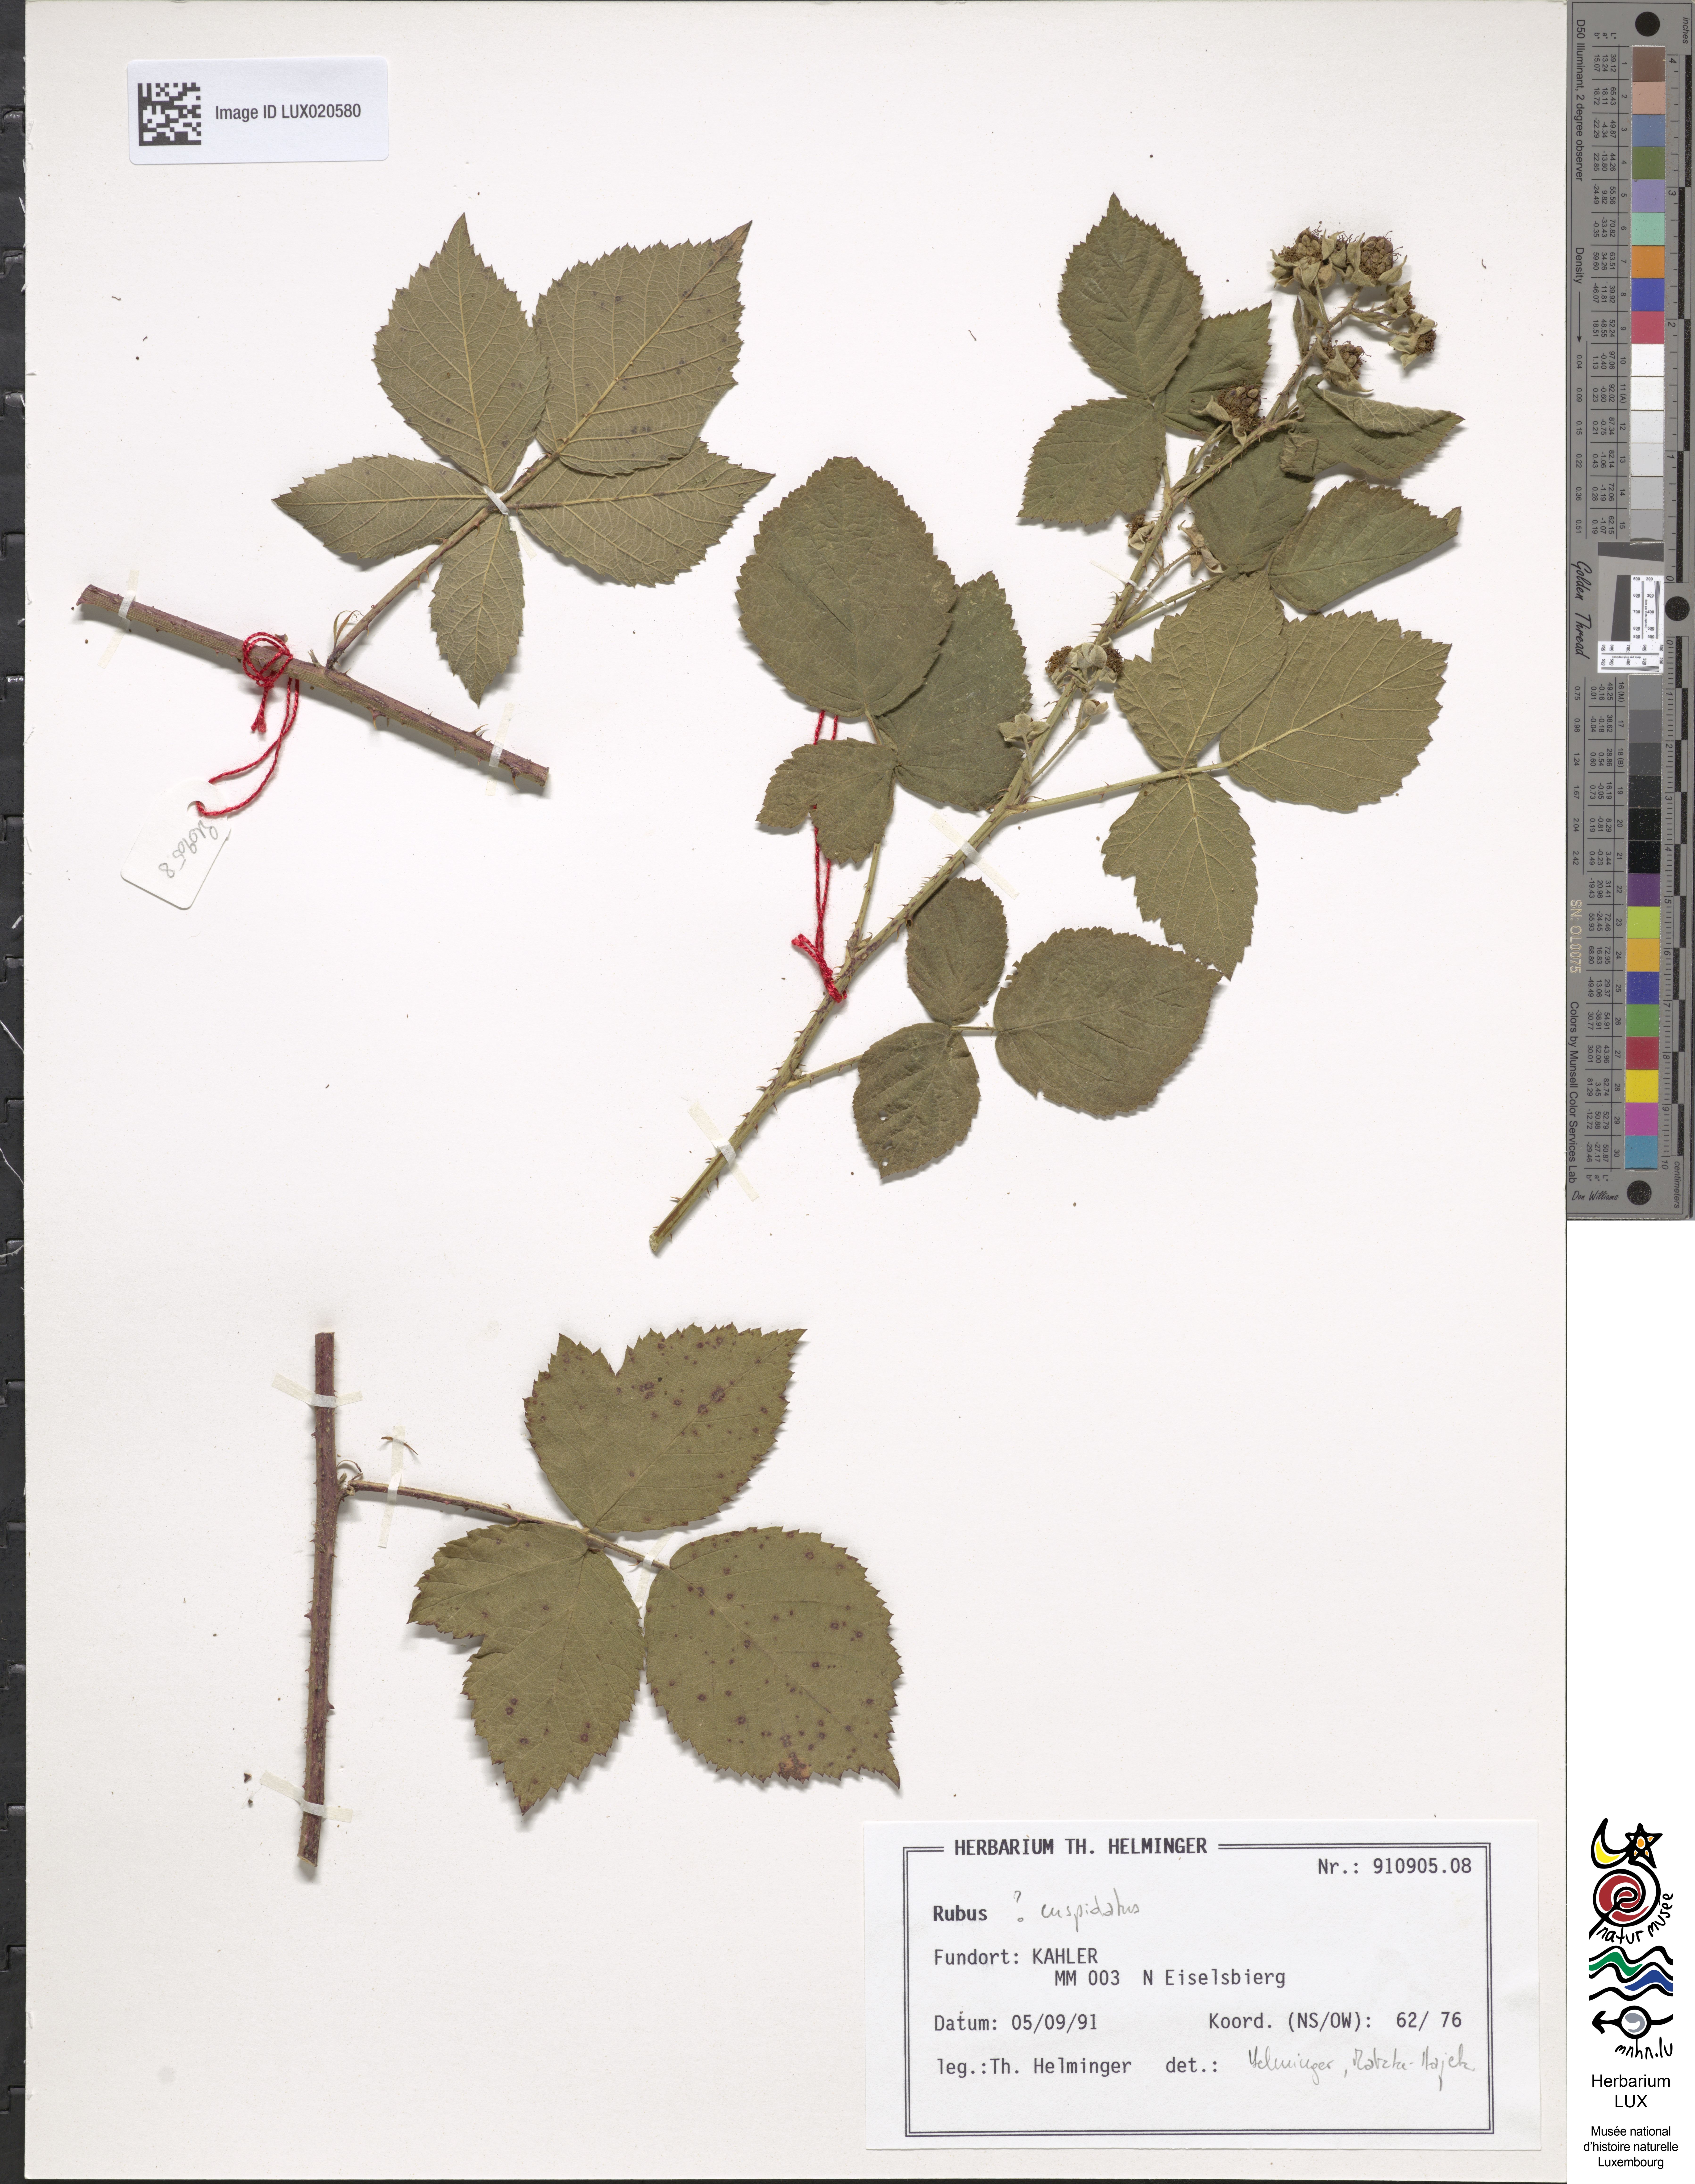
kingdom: Plantae
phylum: Tracheophyta
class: Magnoliopsida
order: Rosales
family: Rosaceae
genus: Rubus
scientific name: Rubus cuspidatus
